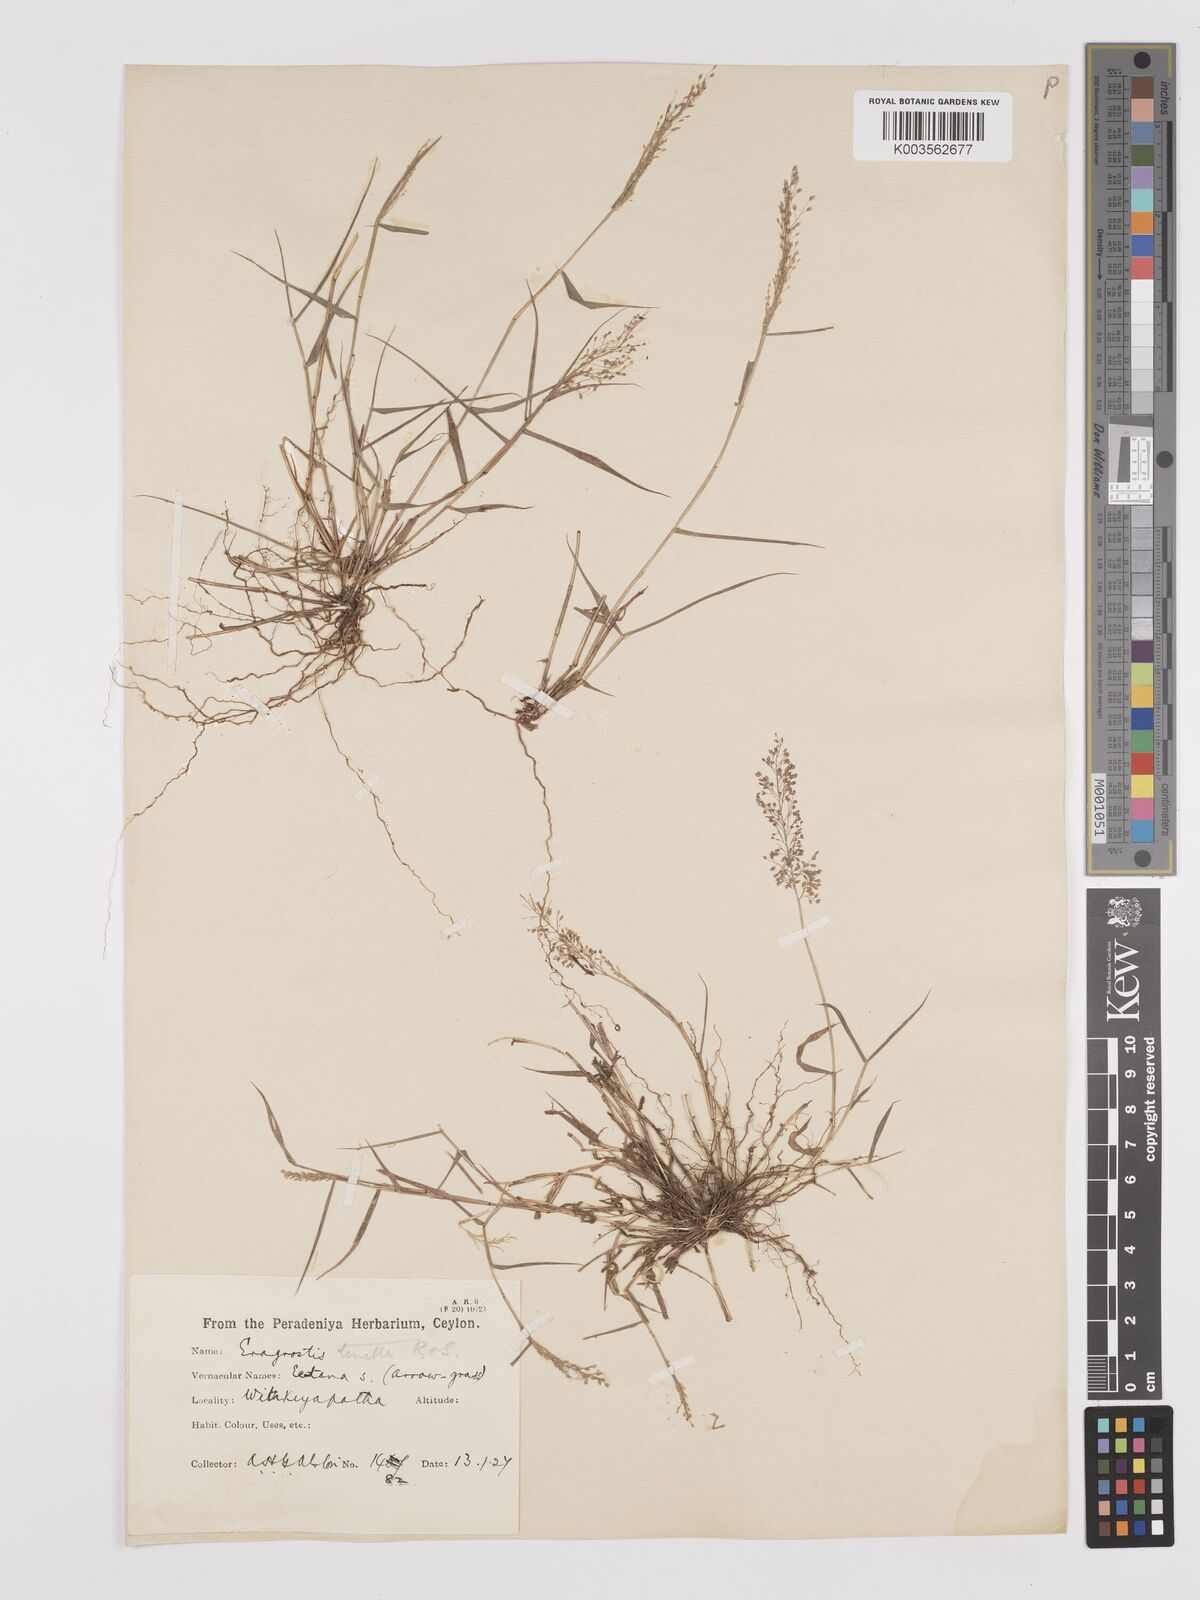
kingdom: Plantae
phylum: Tracheophyta
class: Liliopsida
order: Poales
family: Poaceae
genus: Eragrostis
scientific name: Eragrostis tenella
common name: Japanese lovegrass
